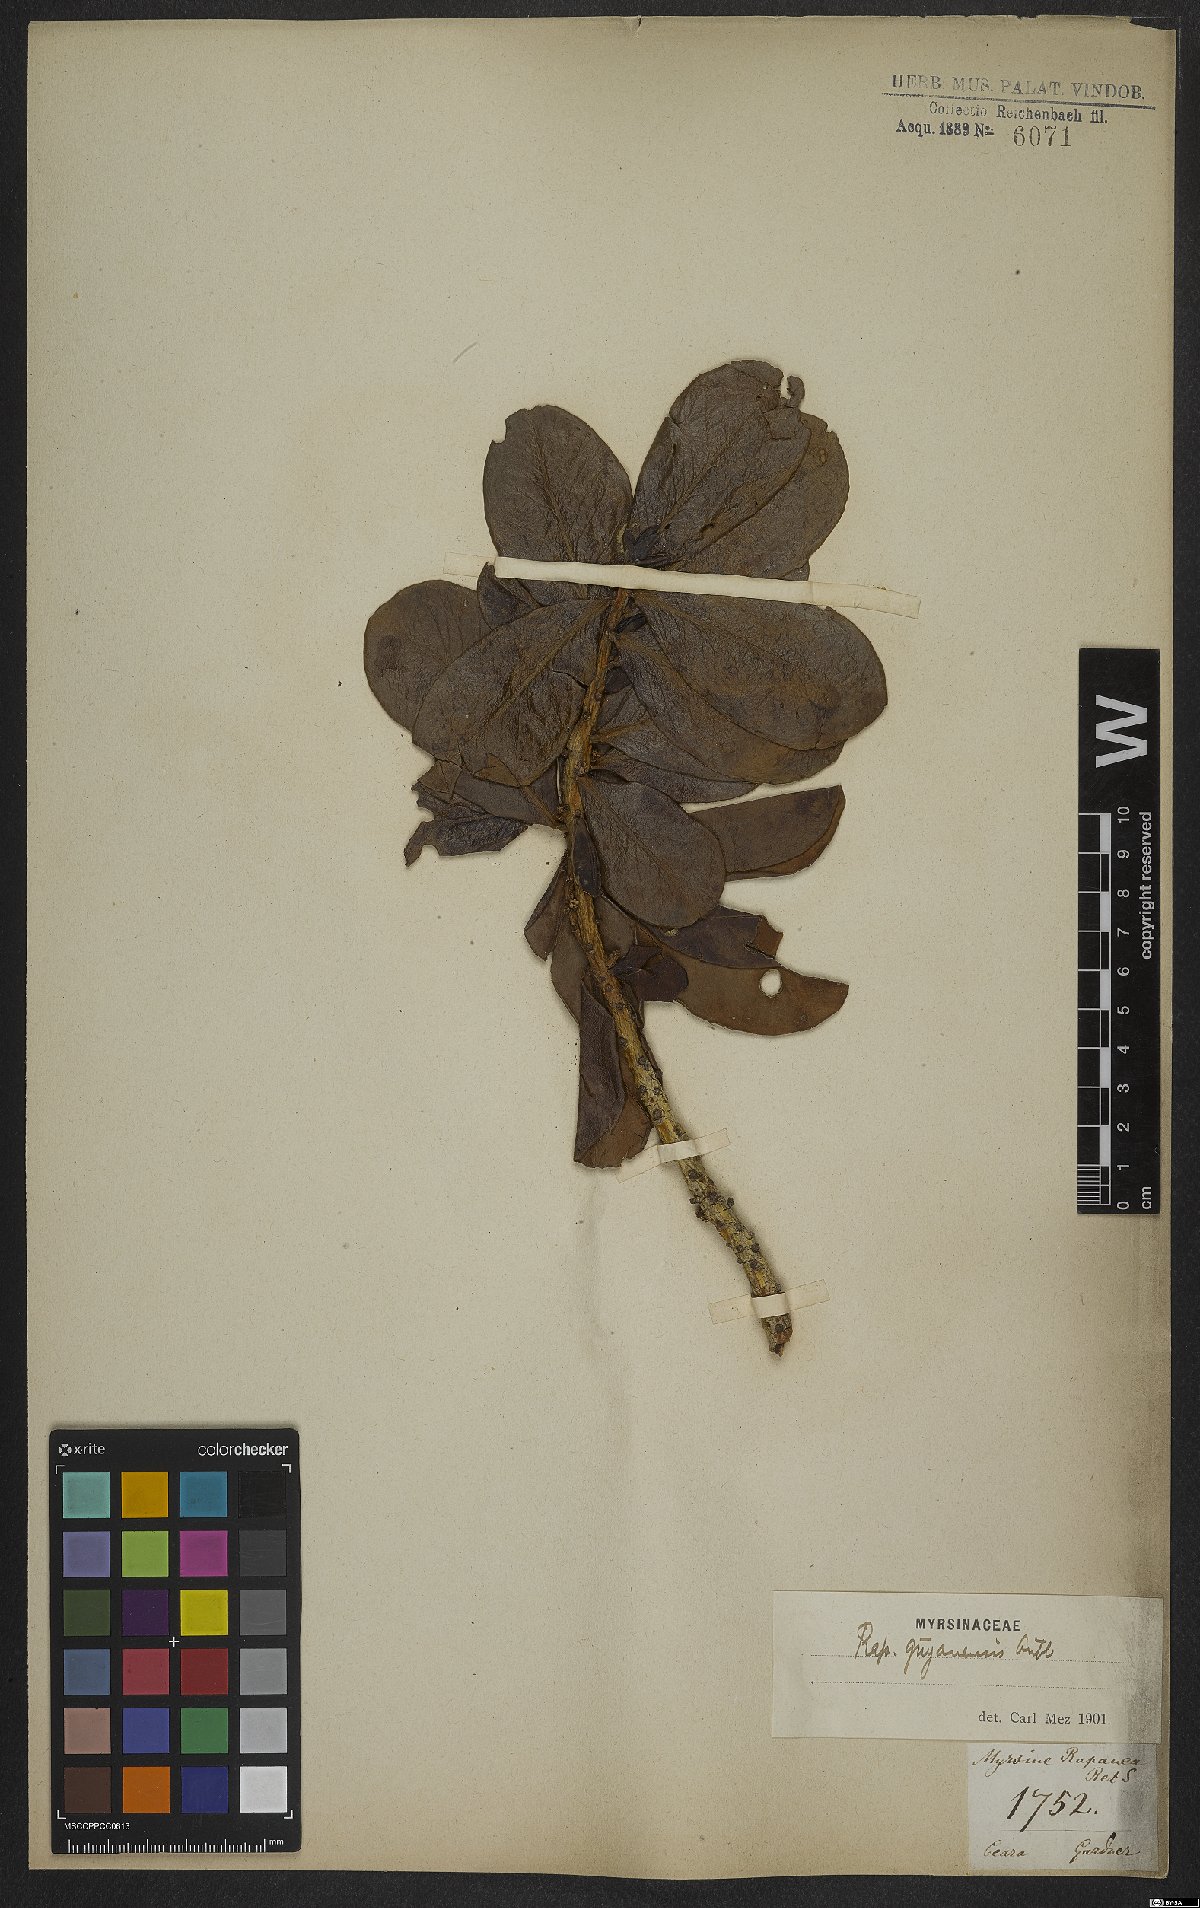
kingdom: Plantae
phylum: Tracheophyta
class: Magnoliopsida
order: Ericales
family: Primulaceae
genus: Myrsine
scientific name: Myrsine guianensis
